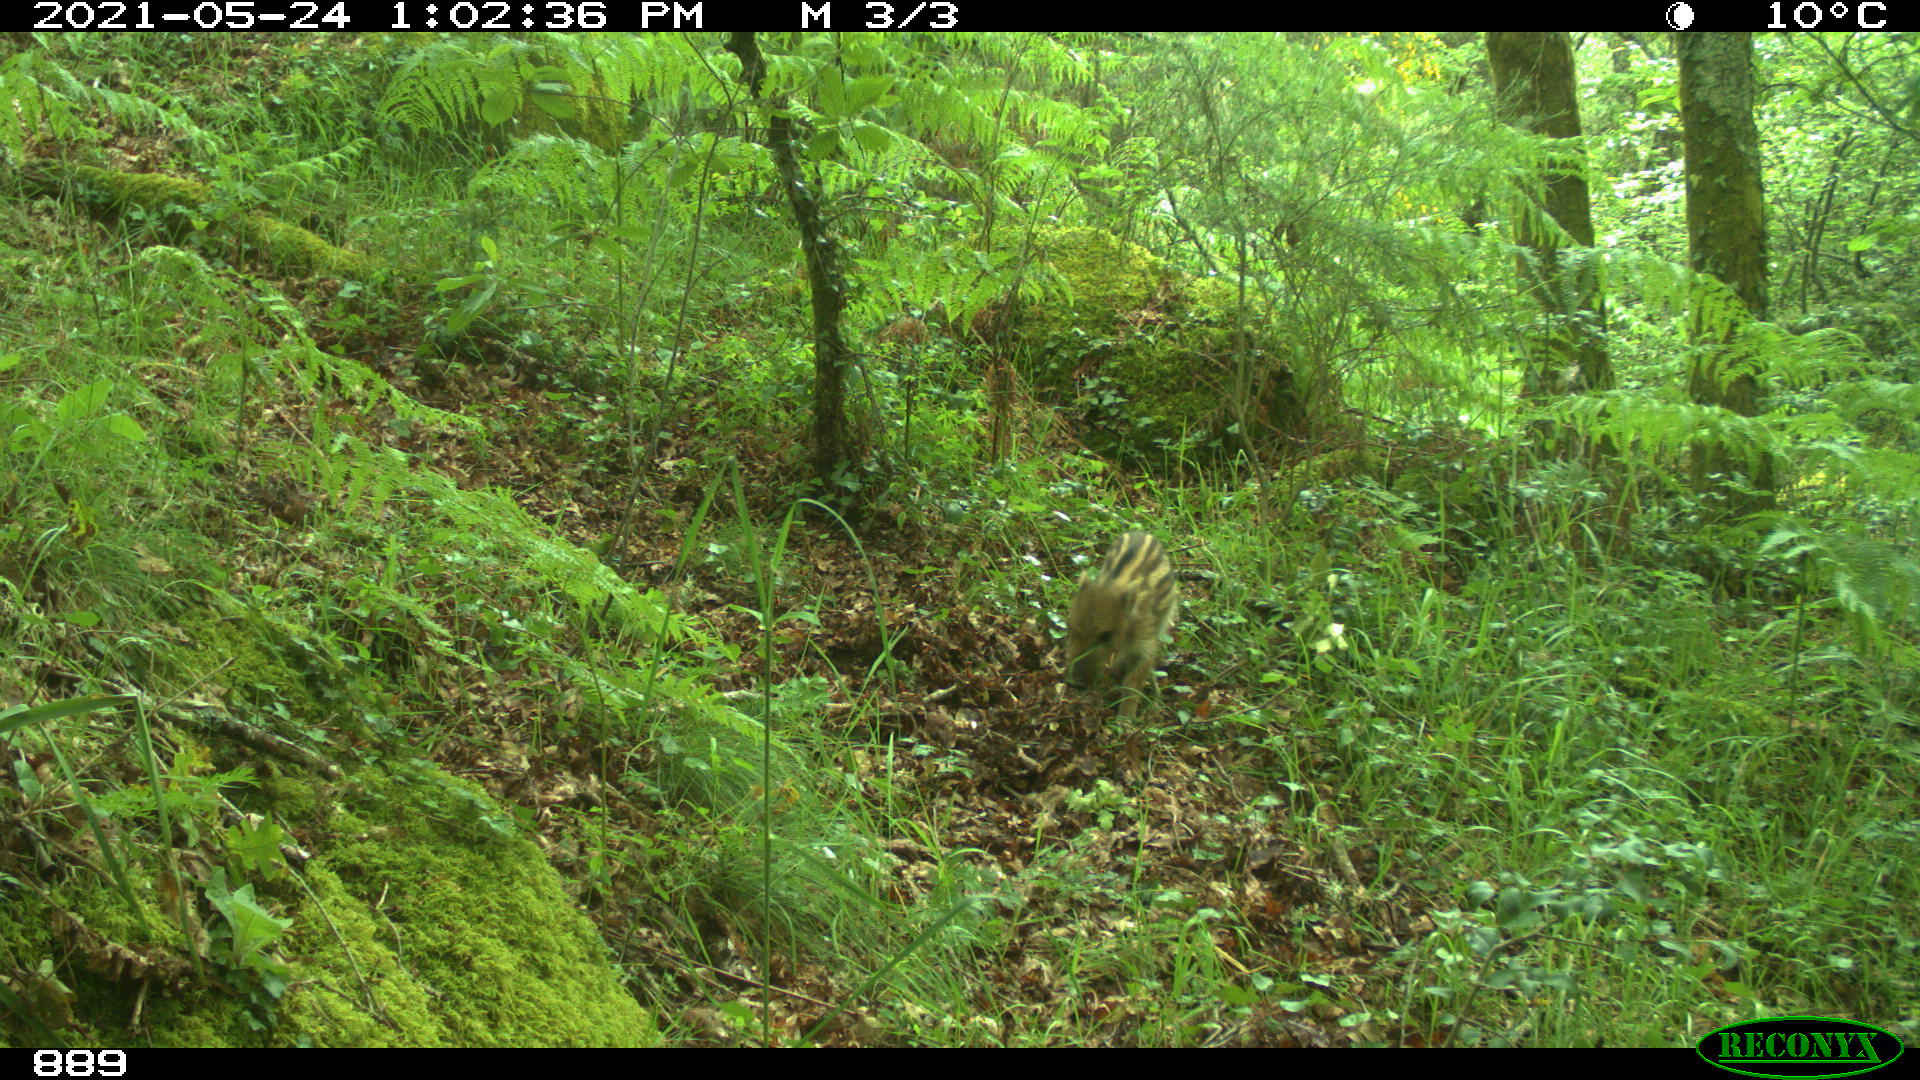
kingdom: Animalia
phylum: Chordata
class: Mammalia
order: Artiodactyla
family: Suidae
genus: Sus
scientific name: Sus scrofa
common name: Wild boar
